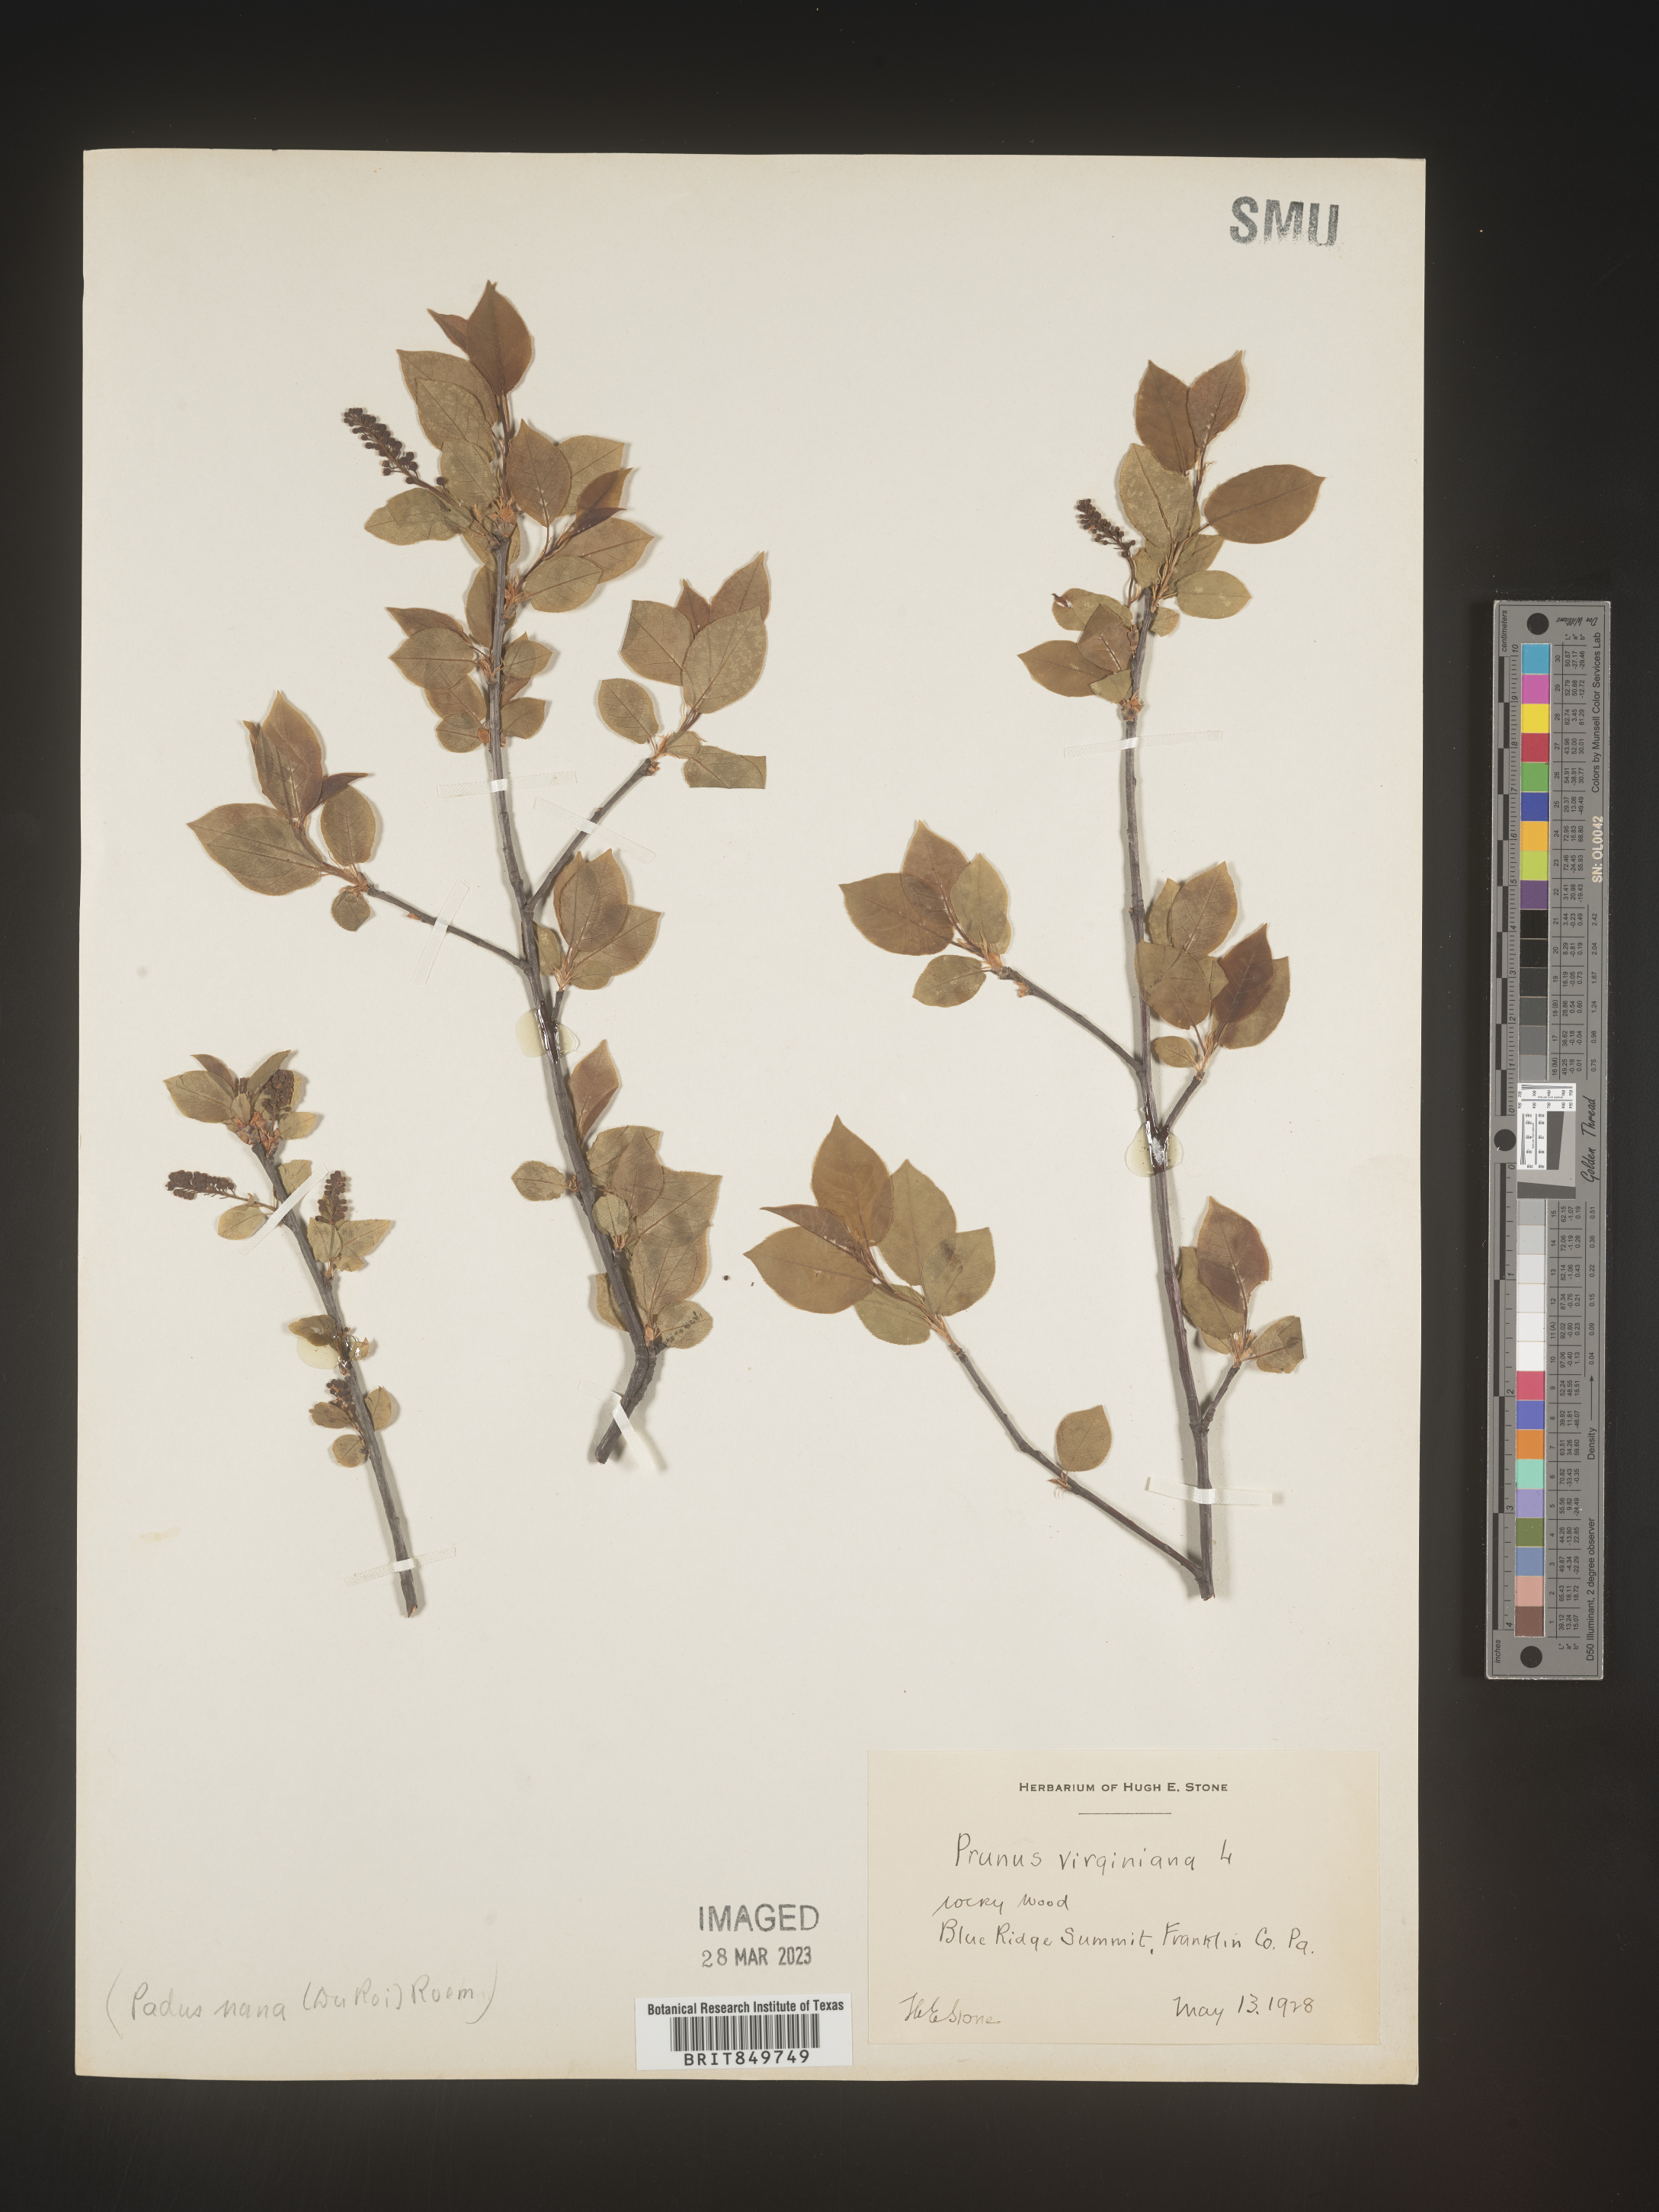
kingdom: Plantae
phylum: Tracheophyta
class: Magnoliopsida
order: Rosales
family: Rosaceae
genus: Prunus
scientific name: Prunus virginiana
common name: Chokecherry
